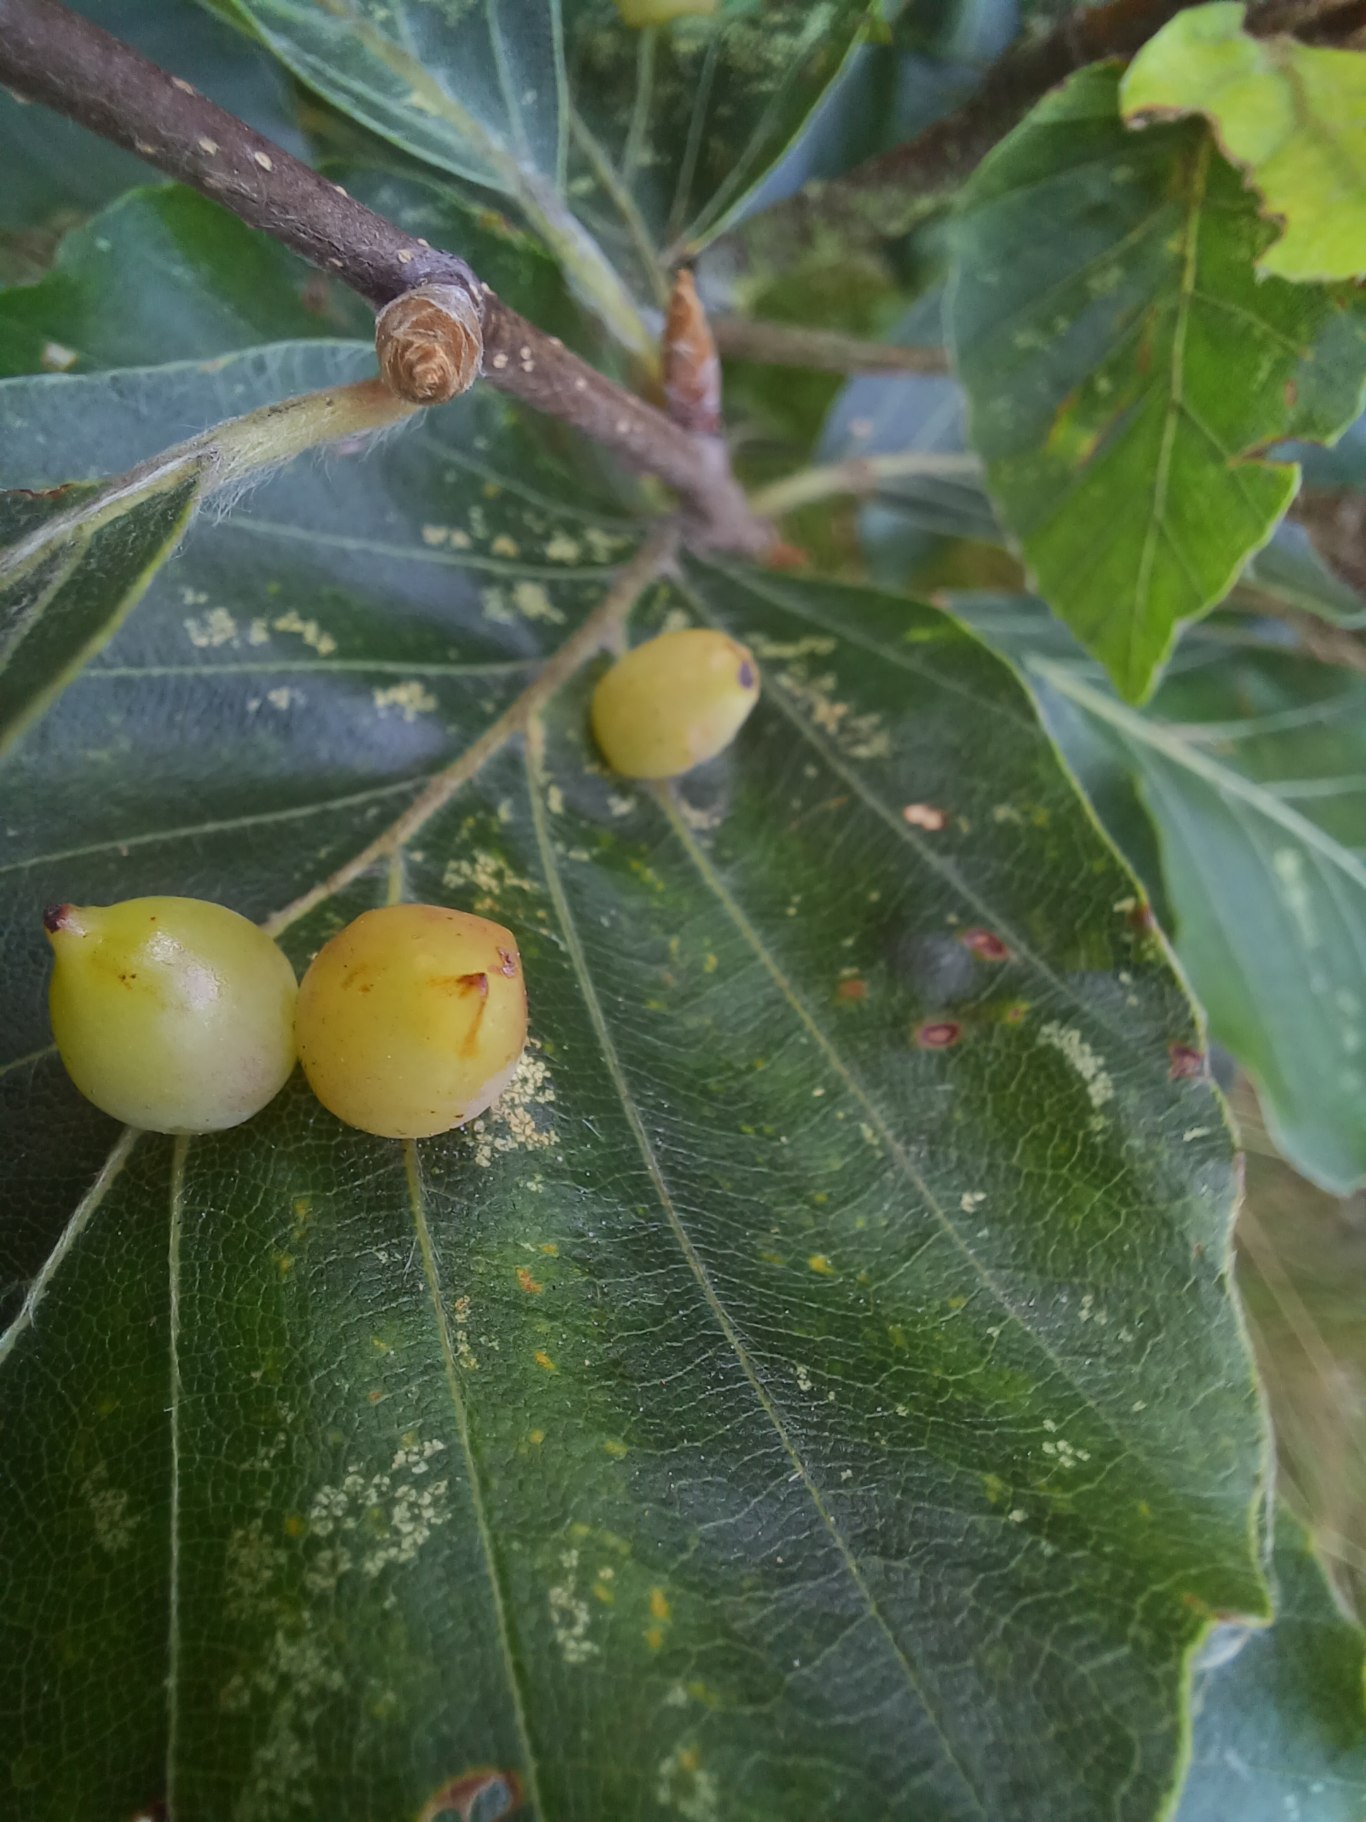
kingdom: Animalia
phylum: Arthropoda
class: Insecta
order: Diptera
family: Cecidomyiidae
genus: Mikiola
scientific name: Mikiola fagi
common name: Bøgegalmyg
